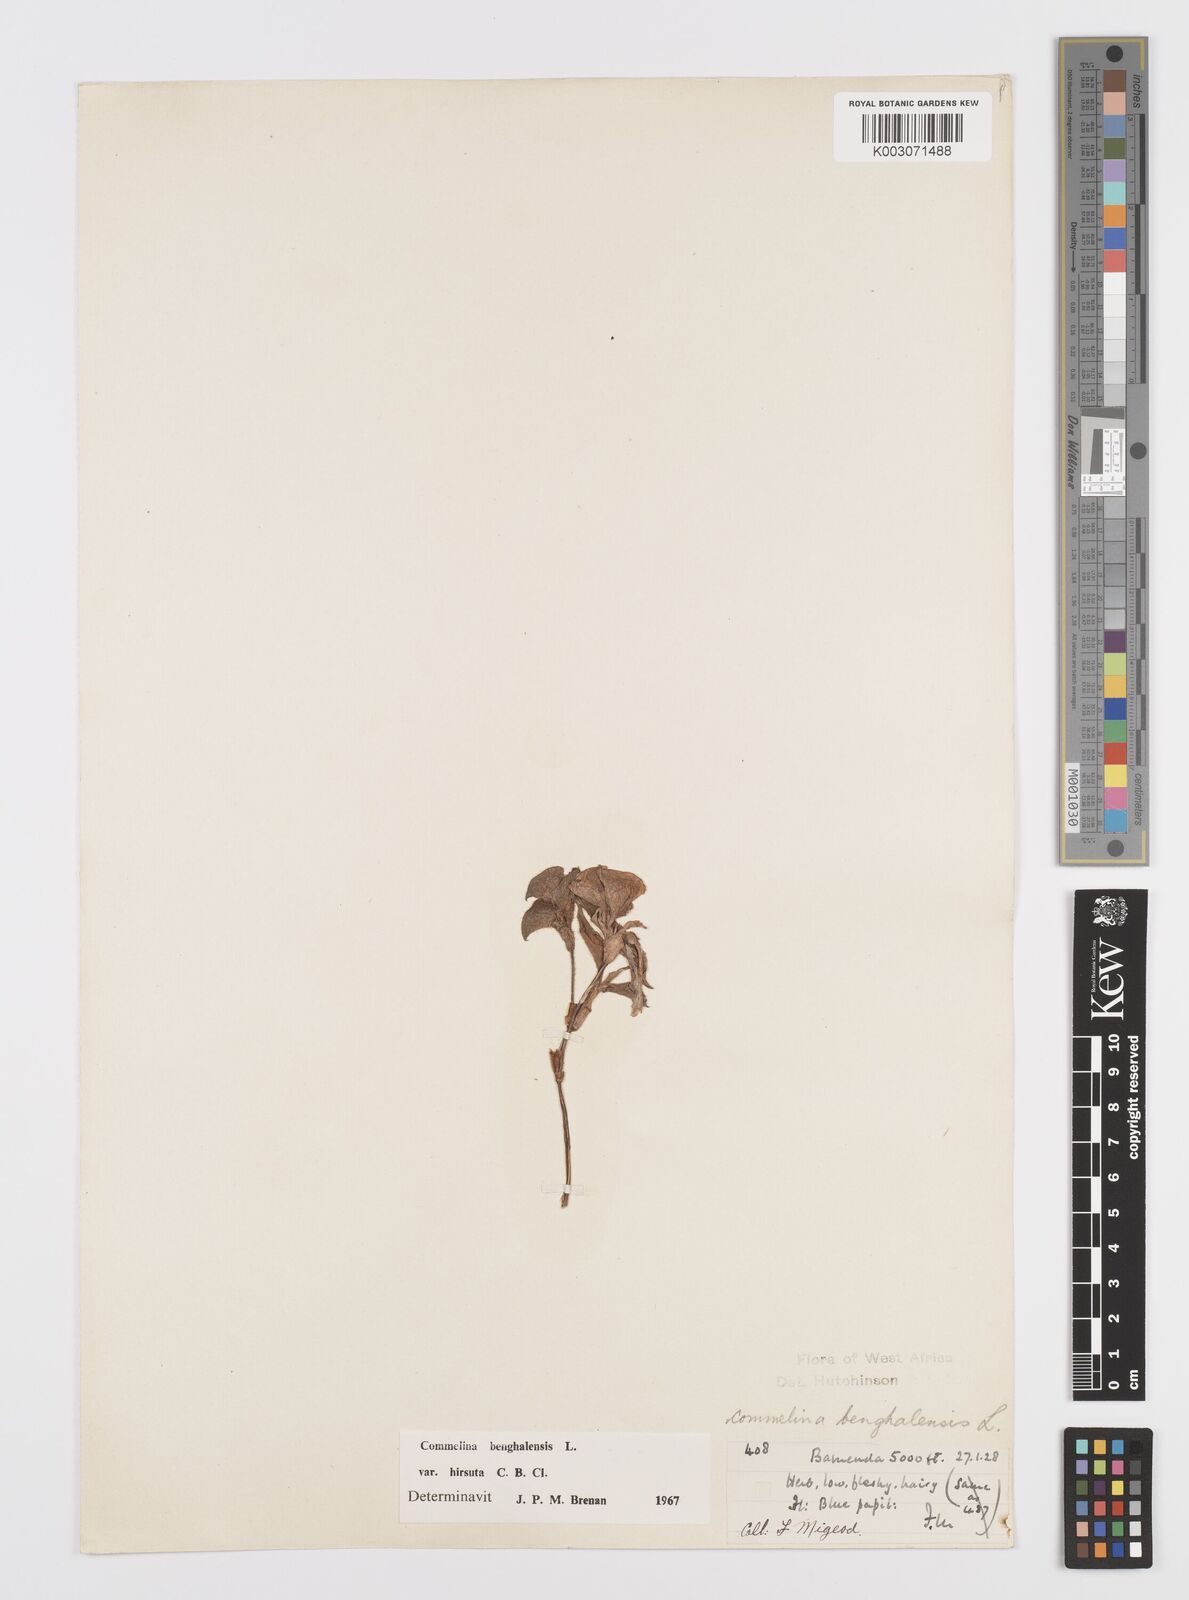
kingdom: Plantae
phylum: Tracheophyta
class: Liliopsida
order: Commelinales
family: Commelinaceae
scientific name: Commelinaceae
